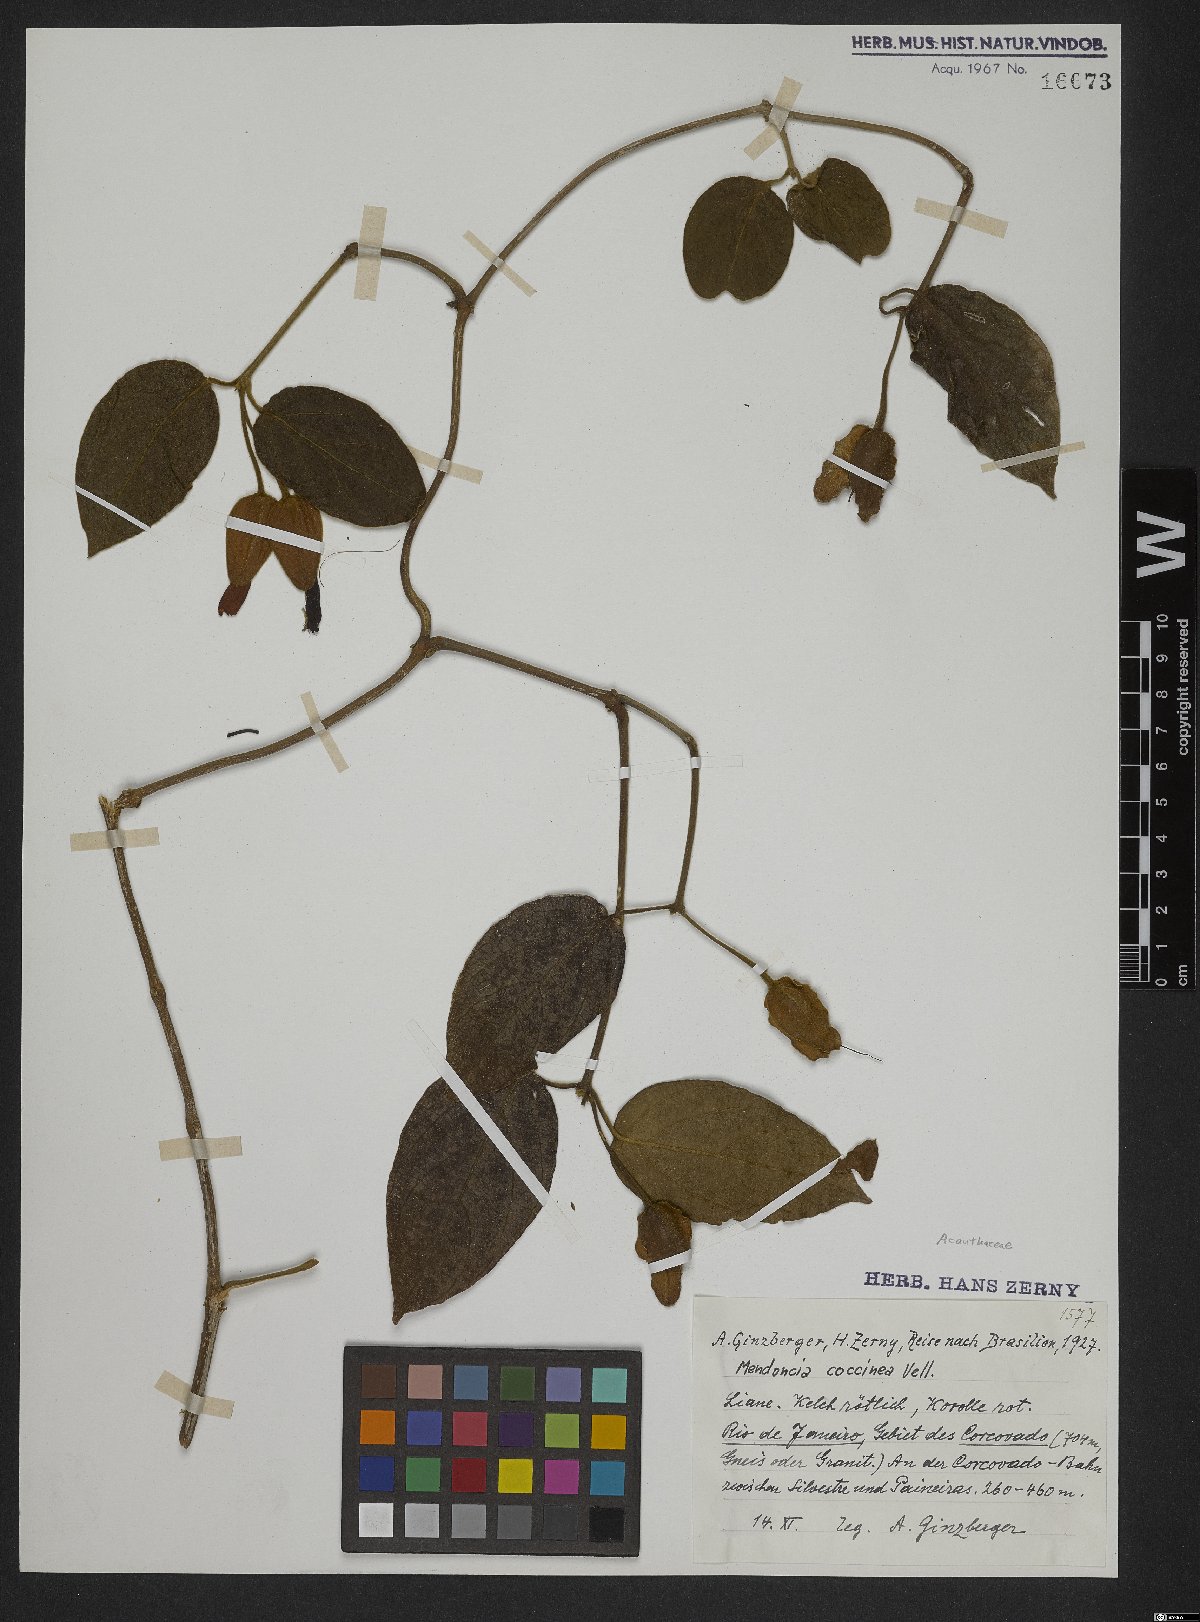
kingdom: Plantae
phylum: Tracheophyta
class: Magnoliopsida
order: Lamiales
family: Acanthaceae
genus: Mendoncia
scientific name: Mendoncia coccinea
